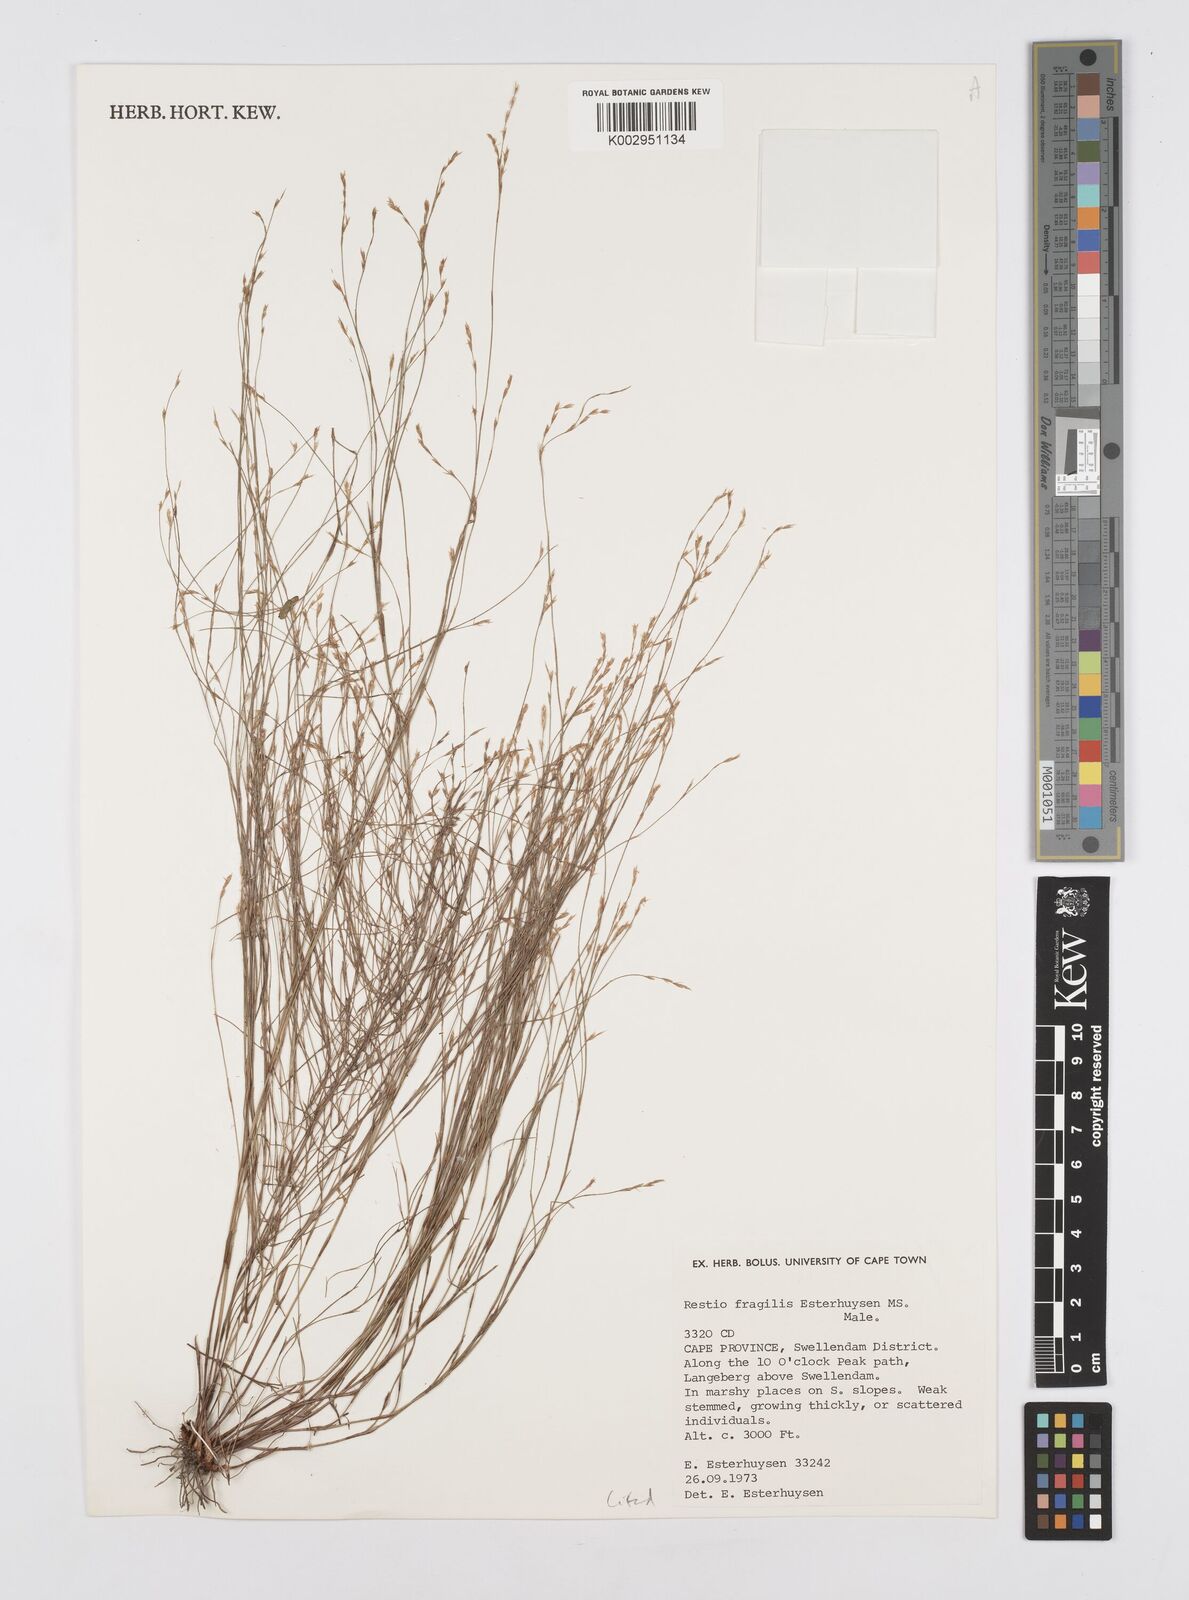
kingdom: Plantae
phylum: Tracheophyta
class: Liliopsida
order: Poales
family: Restionaceae
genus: Restio
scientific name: Restio fragilis
